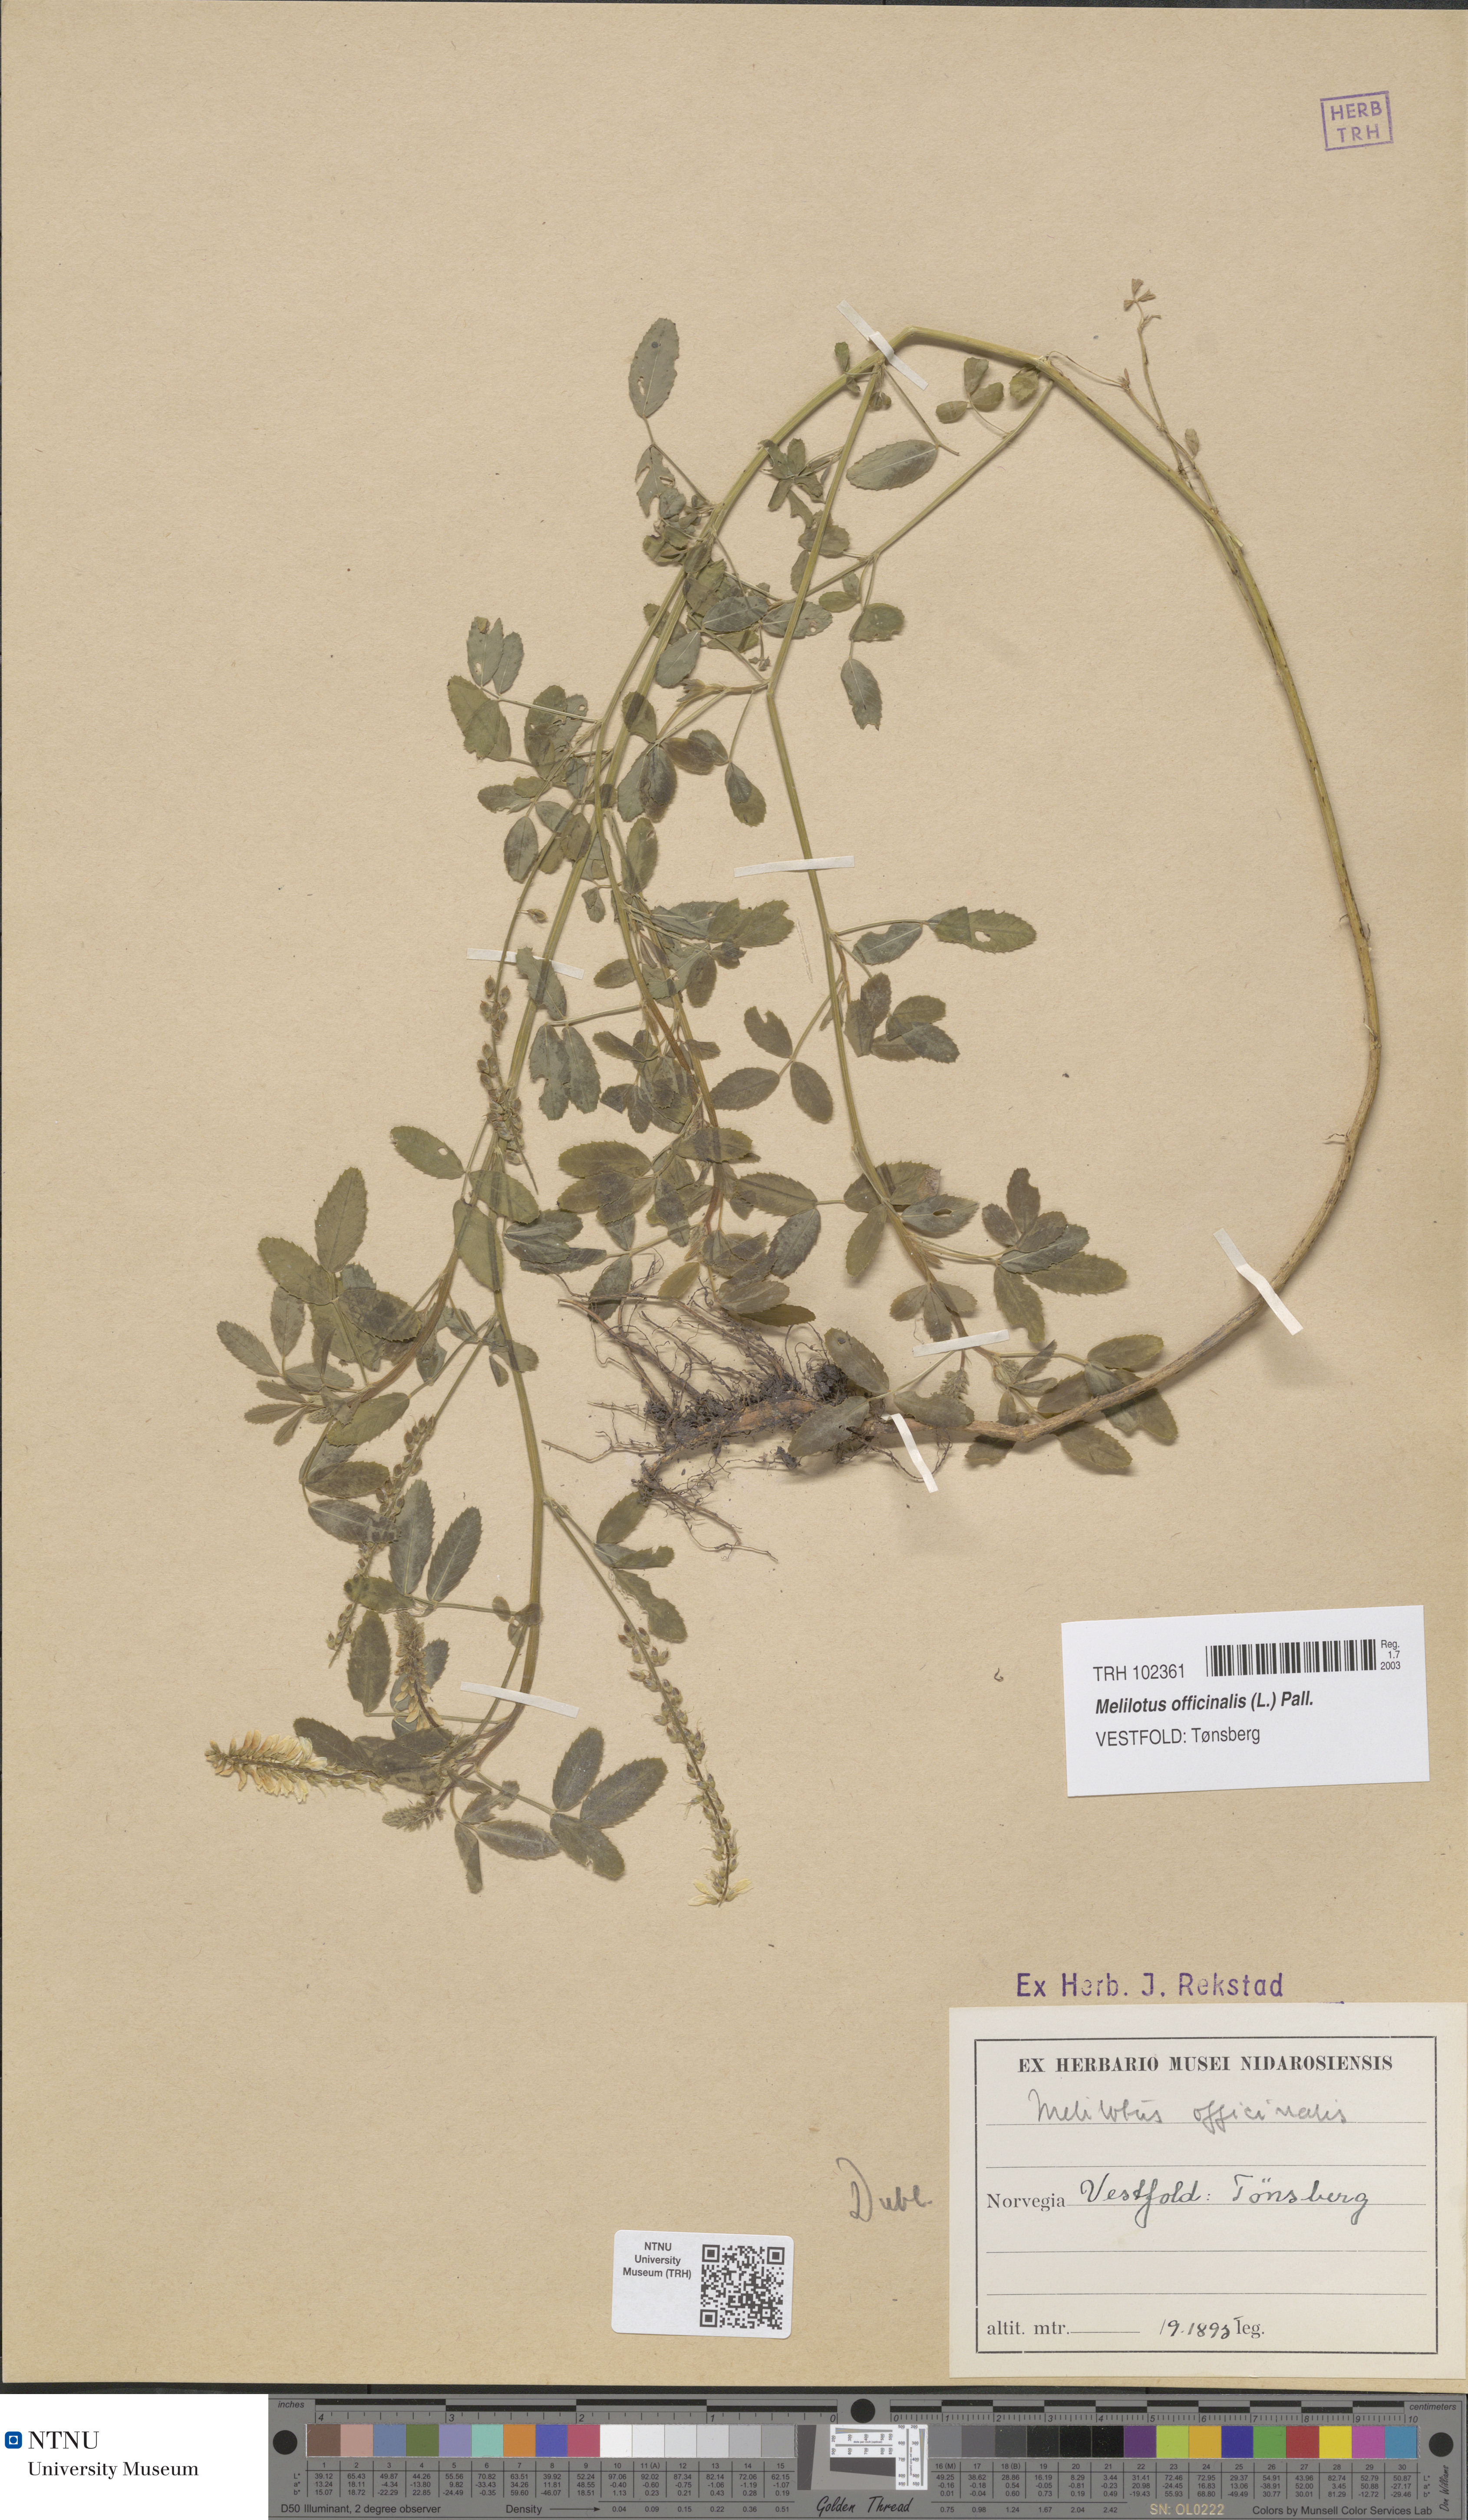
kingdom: Plantae
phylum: Tracheophyta
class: Magnoliopsida
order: Fabales
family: Fabaceae
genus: Melilotus
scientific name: Melilotus officinalis
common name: Sweetclover
